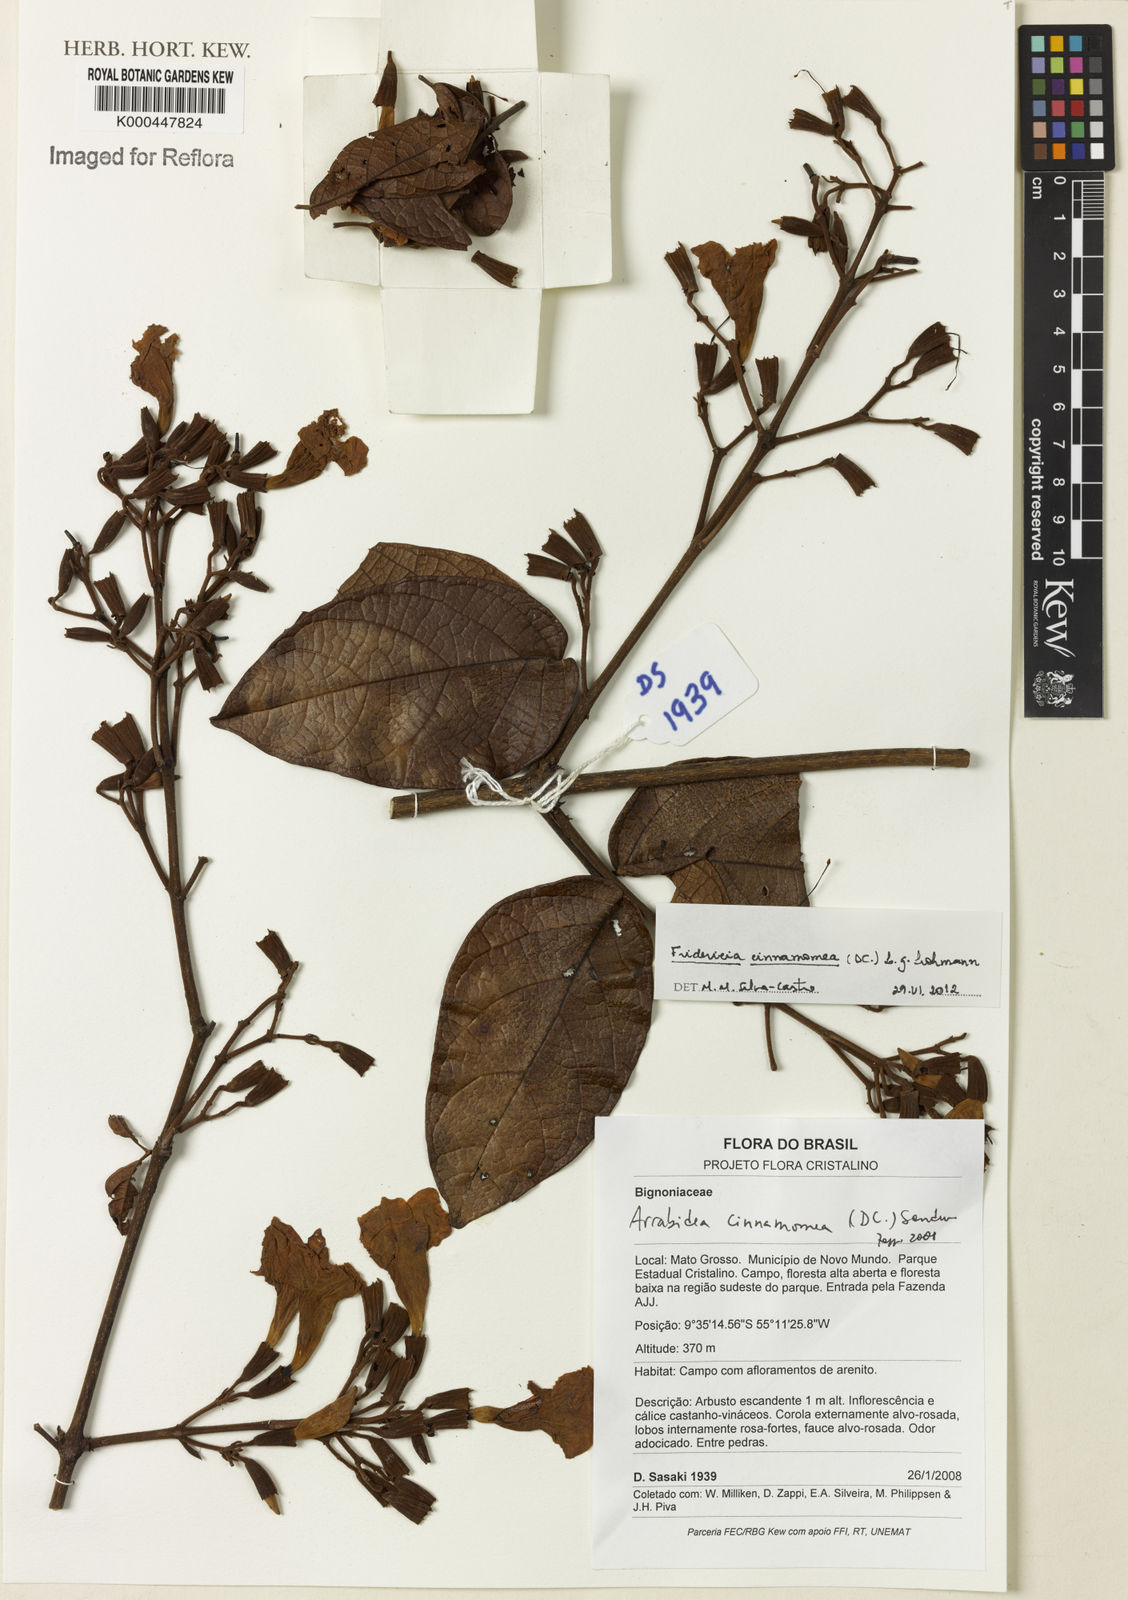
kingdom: Plantae
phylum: Tracheophyta
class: Magnoliopsida
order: Lamiales
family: Bignoniaceae
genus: Fridericia
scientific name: Fridericia cinnamomea
